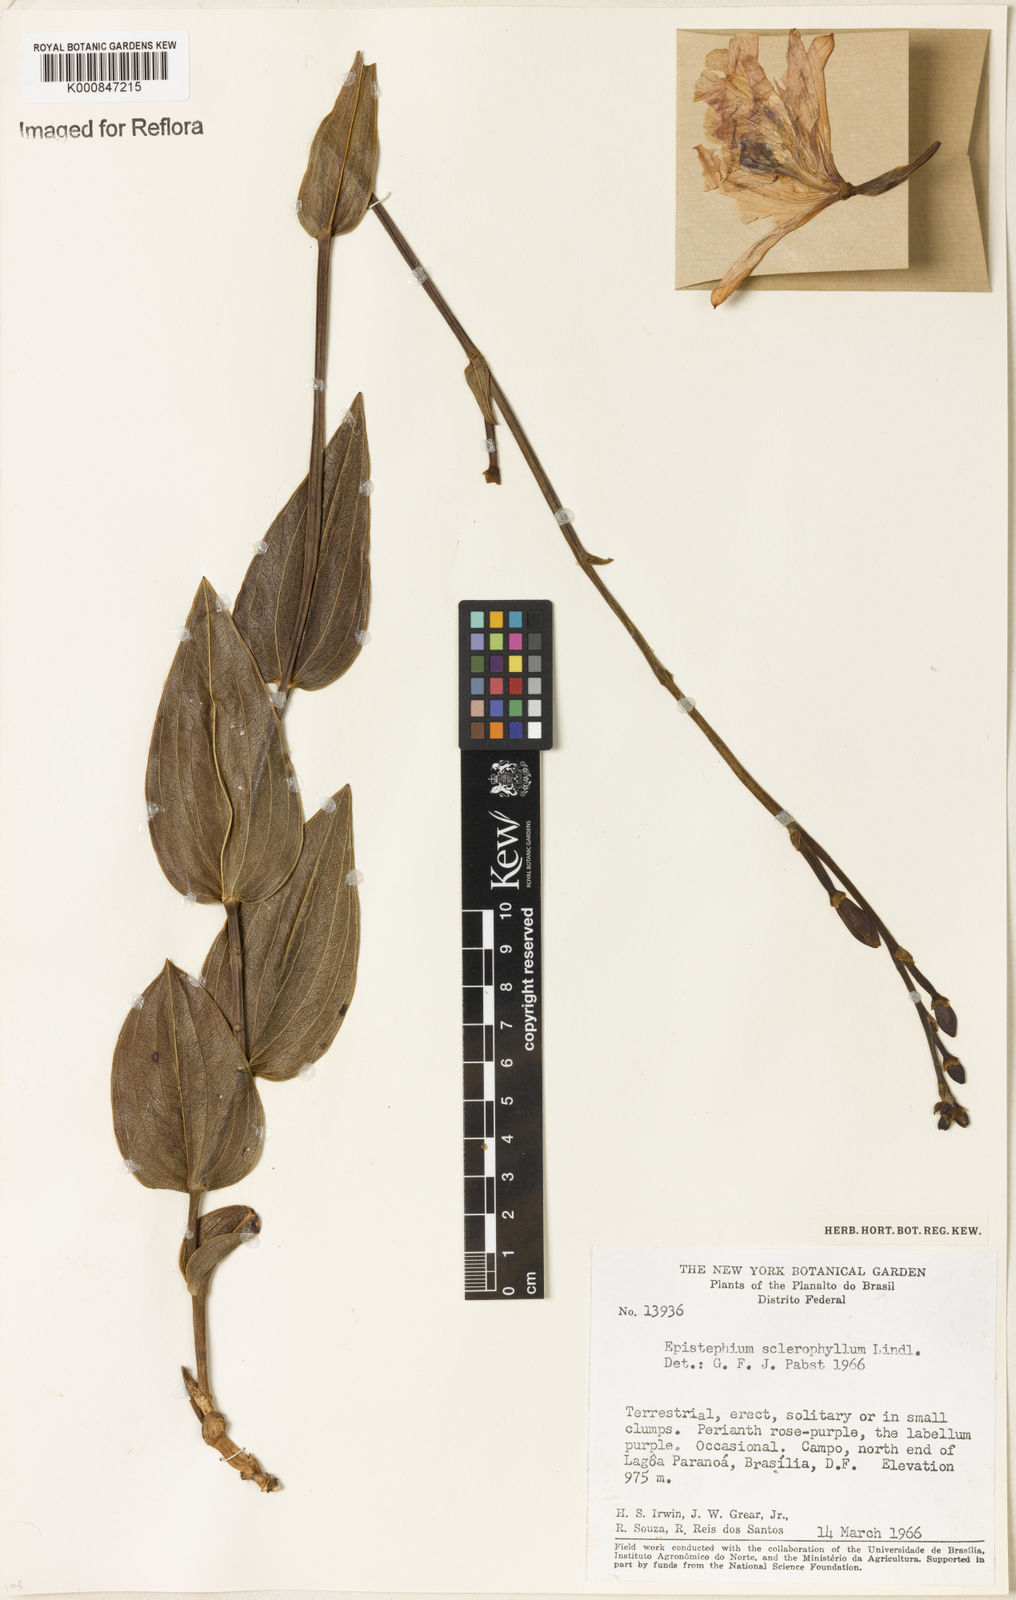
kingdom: Plantae
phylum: Tracheophyta
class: Liliopsida
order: Asparagales
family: Orchidaceae
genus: Epistephium
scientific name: Epistephium sclerophyllum
